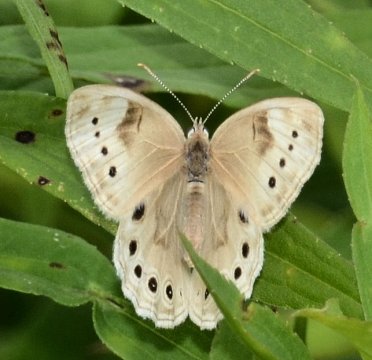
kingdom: Animalia
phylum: Arthropoda
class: Insecta
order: Lepidoptera
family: Nymphalidae
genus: Lethe
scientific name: Lethe eurydice
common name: Eyed Brown
